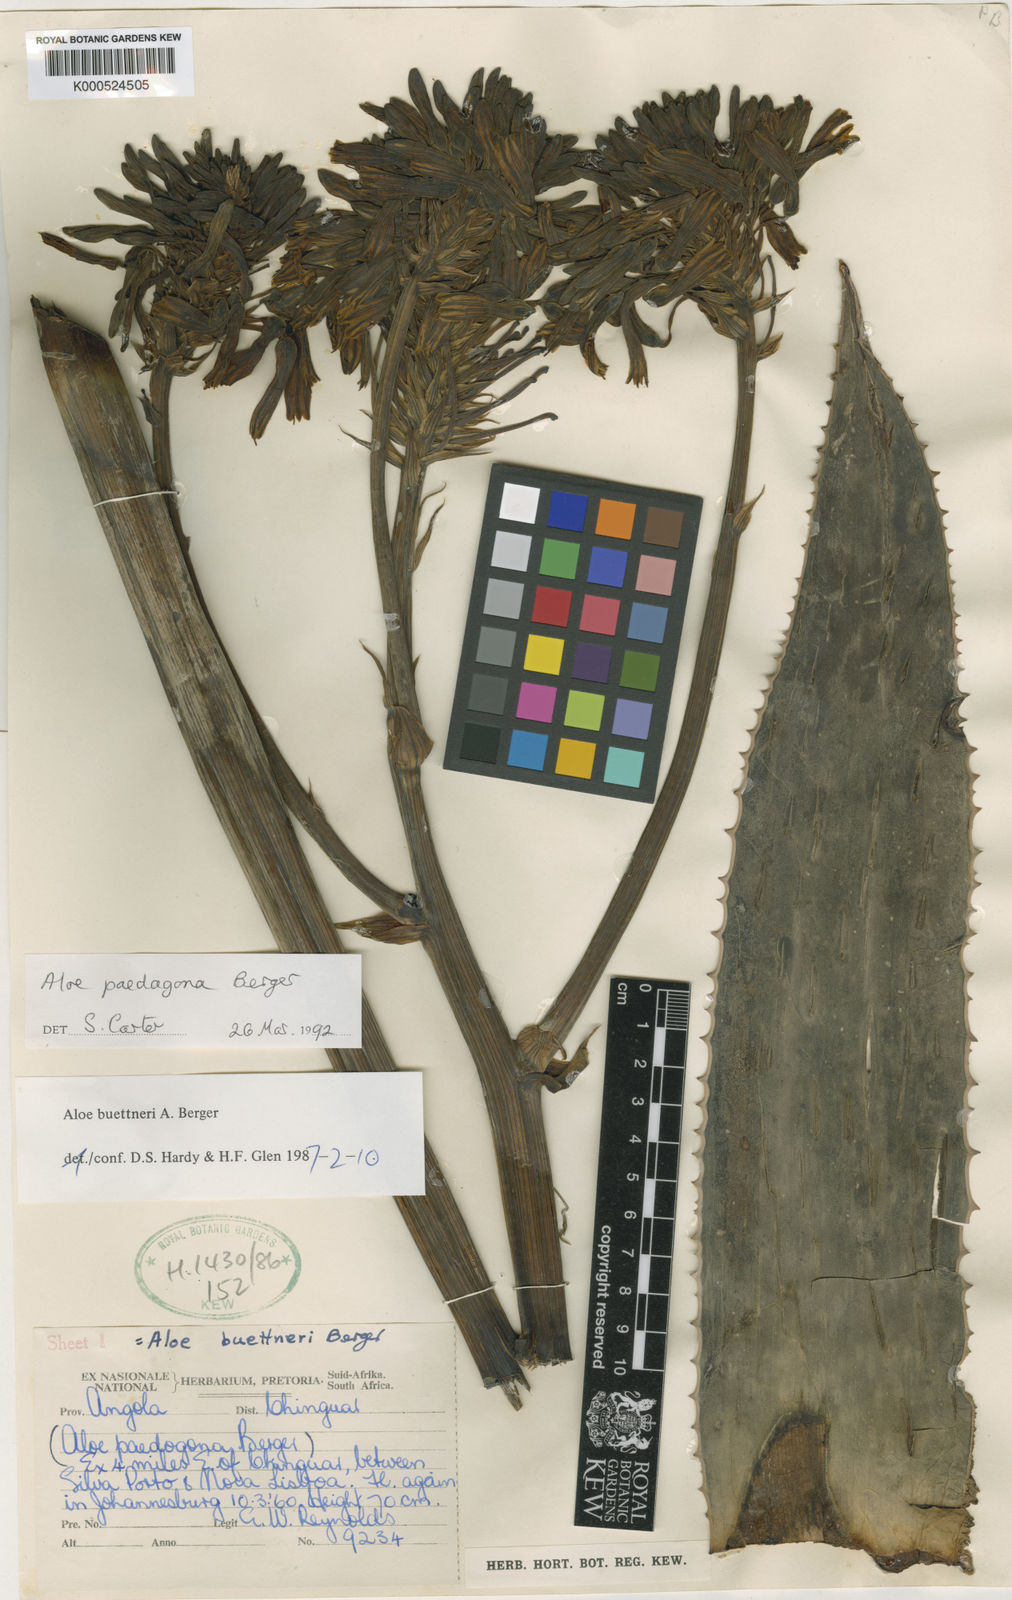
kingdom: Plantae
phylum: Tracheophyta
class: Liliopsida
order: Asparagales
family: Asphodelaceae
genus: Aloe
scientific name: Aloe paedogona
